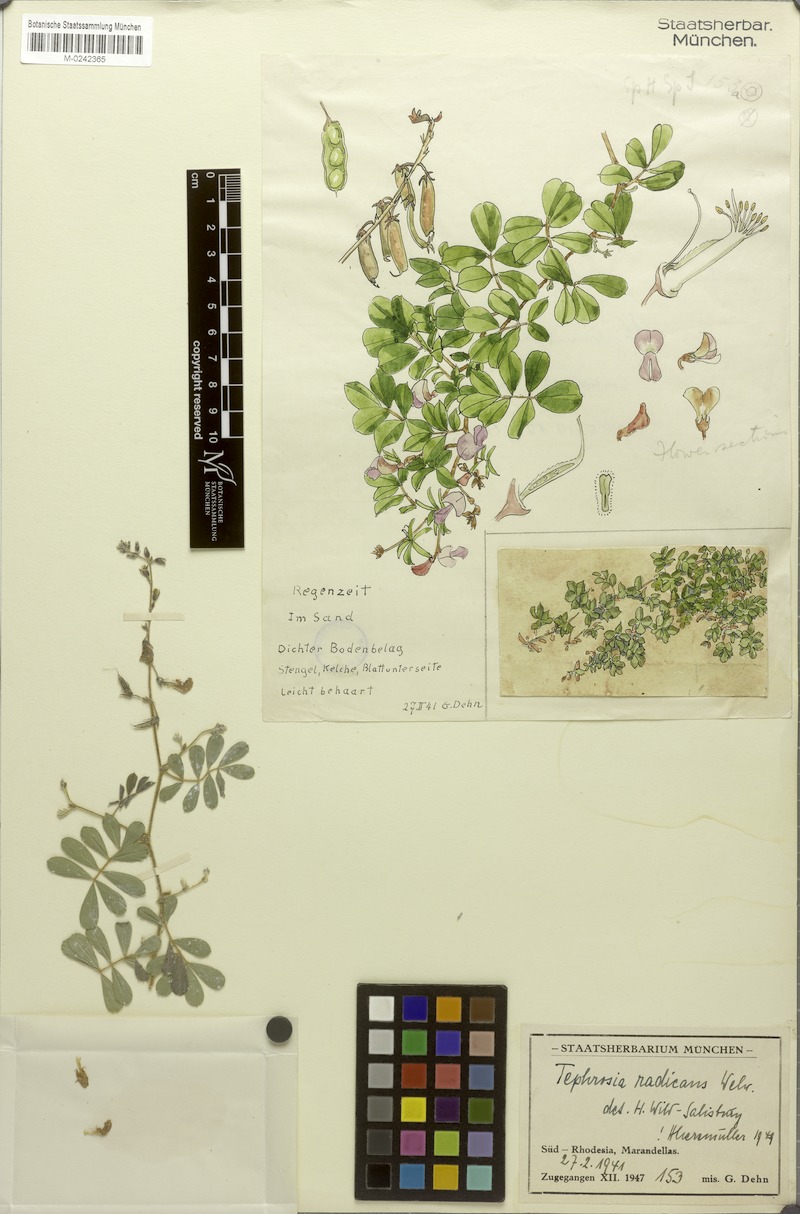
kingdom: Plantae
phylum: Tracheophyta
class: Magnoliopsida
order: Fabales
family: Fabaceae
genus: Tephrosia
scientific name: Tephrosia radicans
